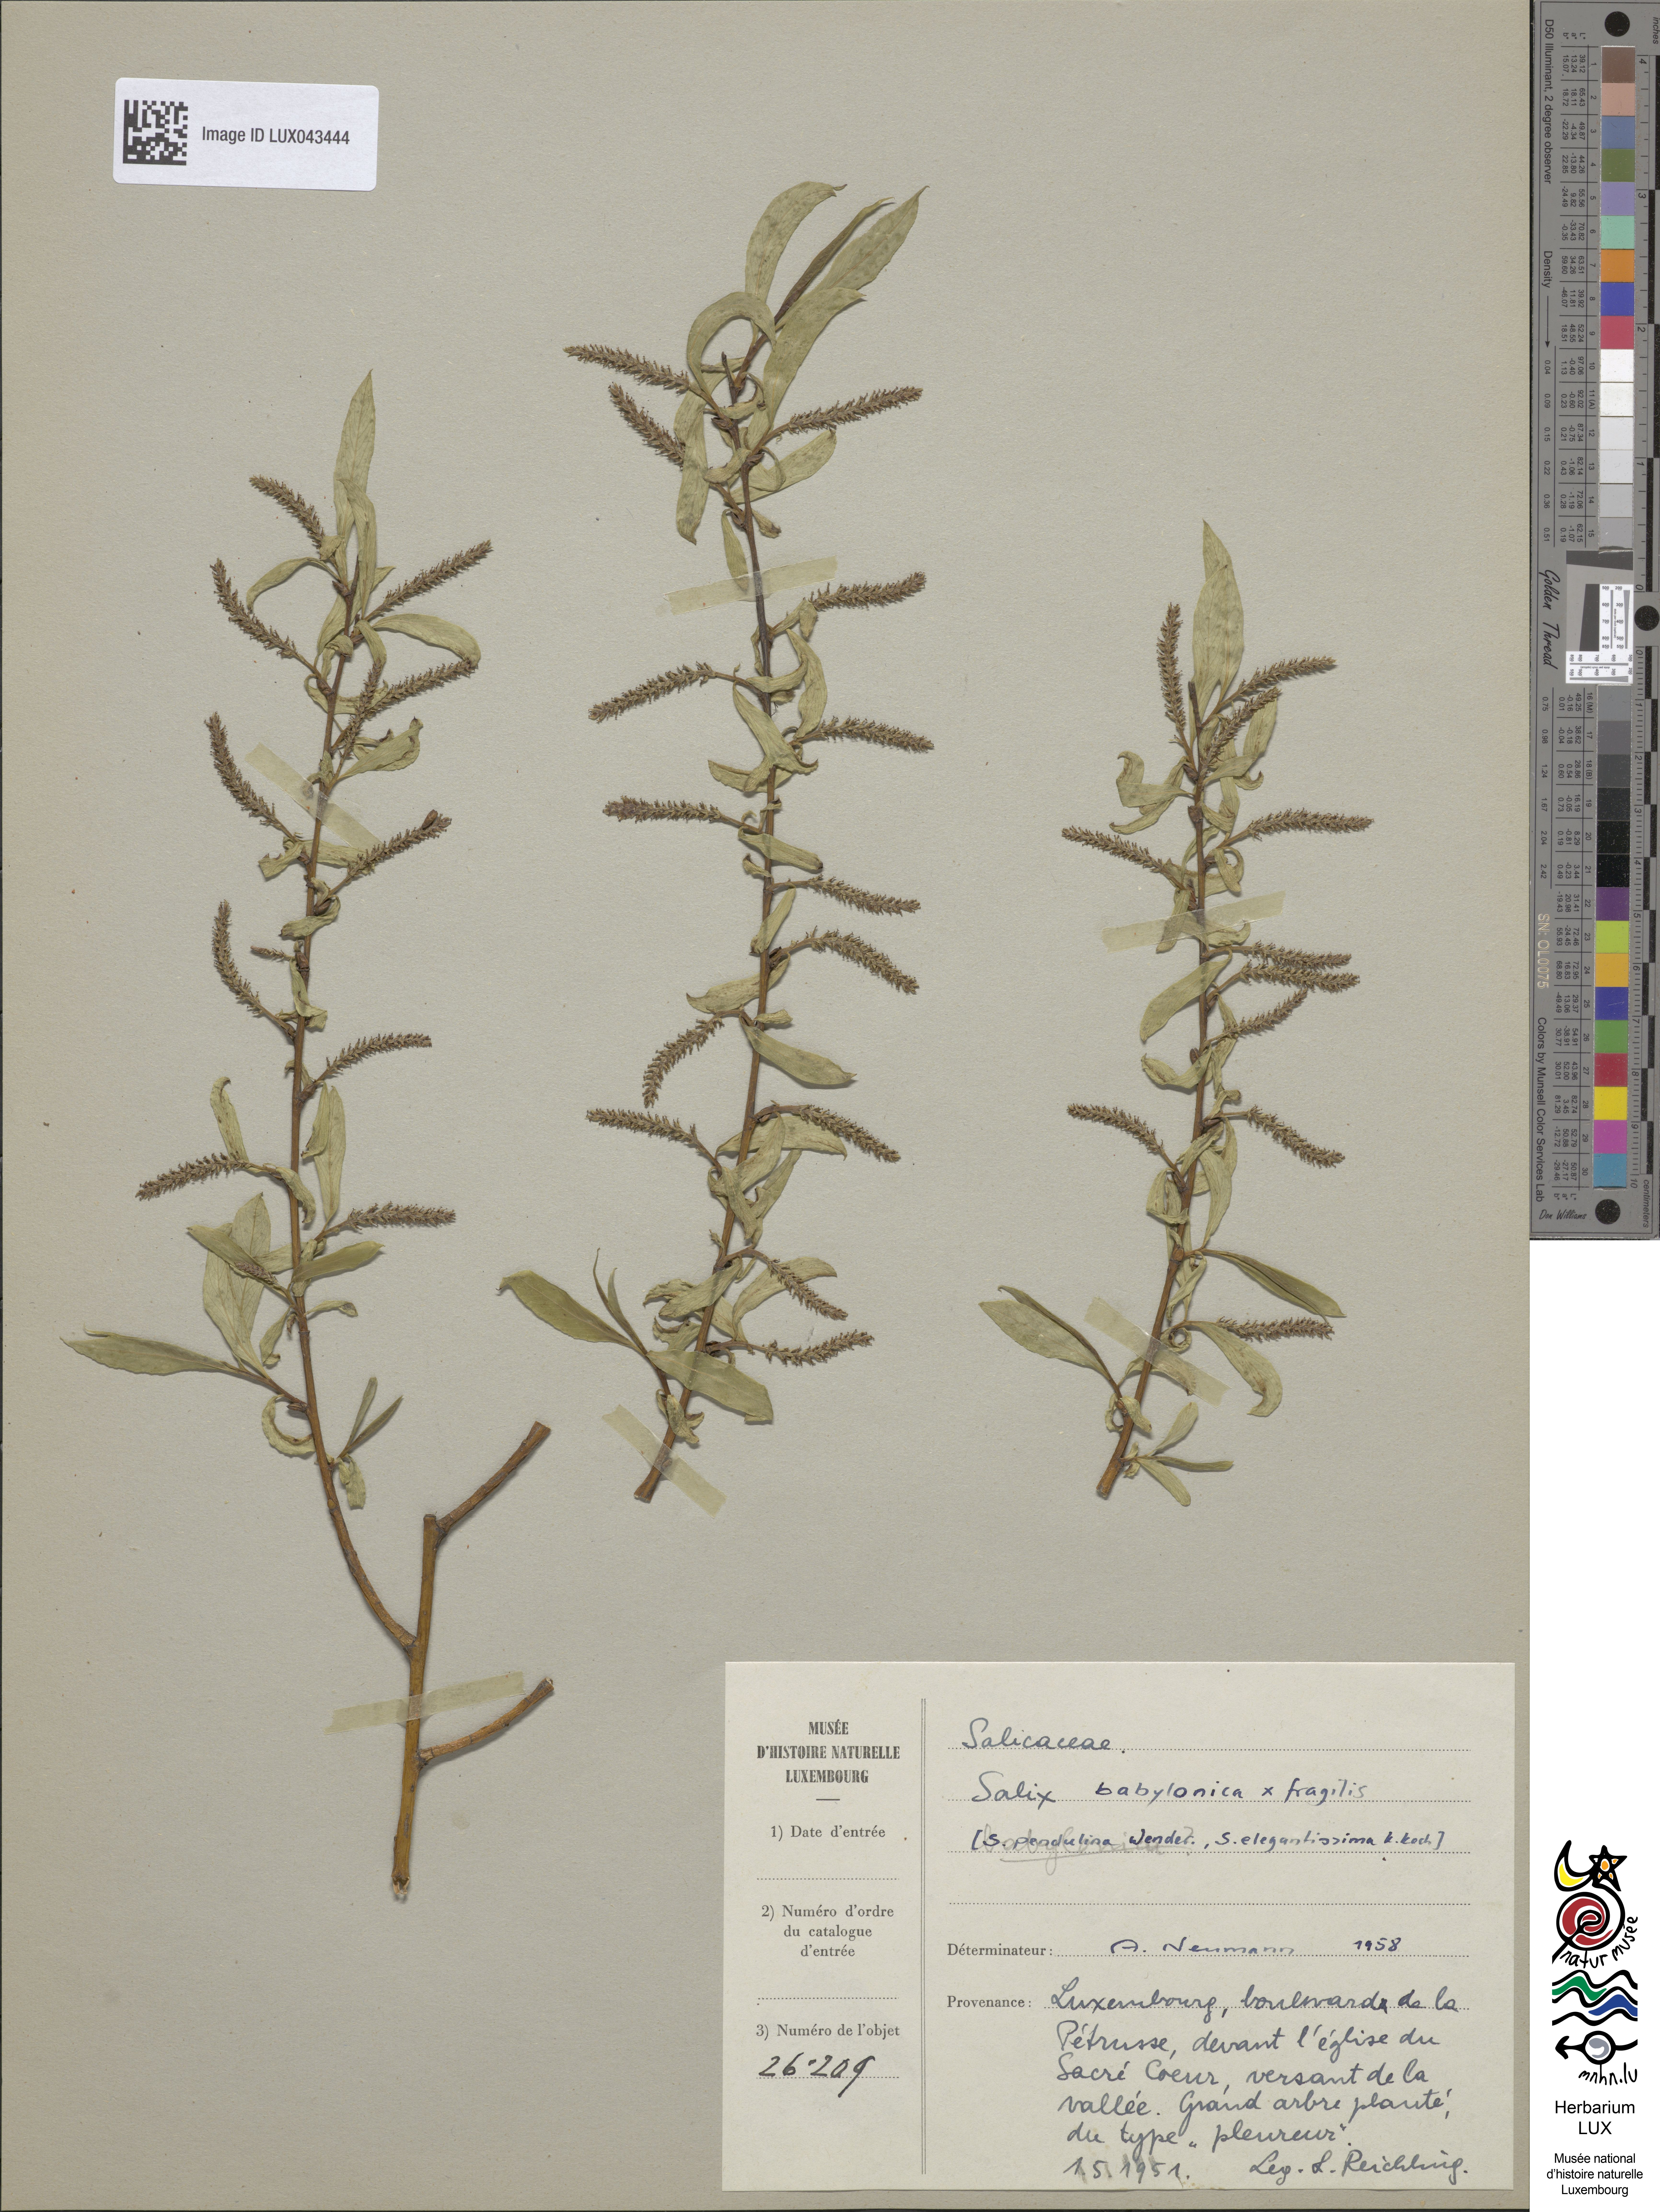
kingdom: Plantae
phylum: Tracheophyta
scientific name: Tracheophyta
